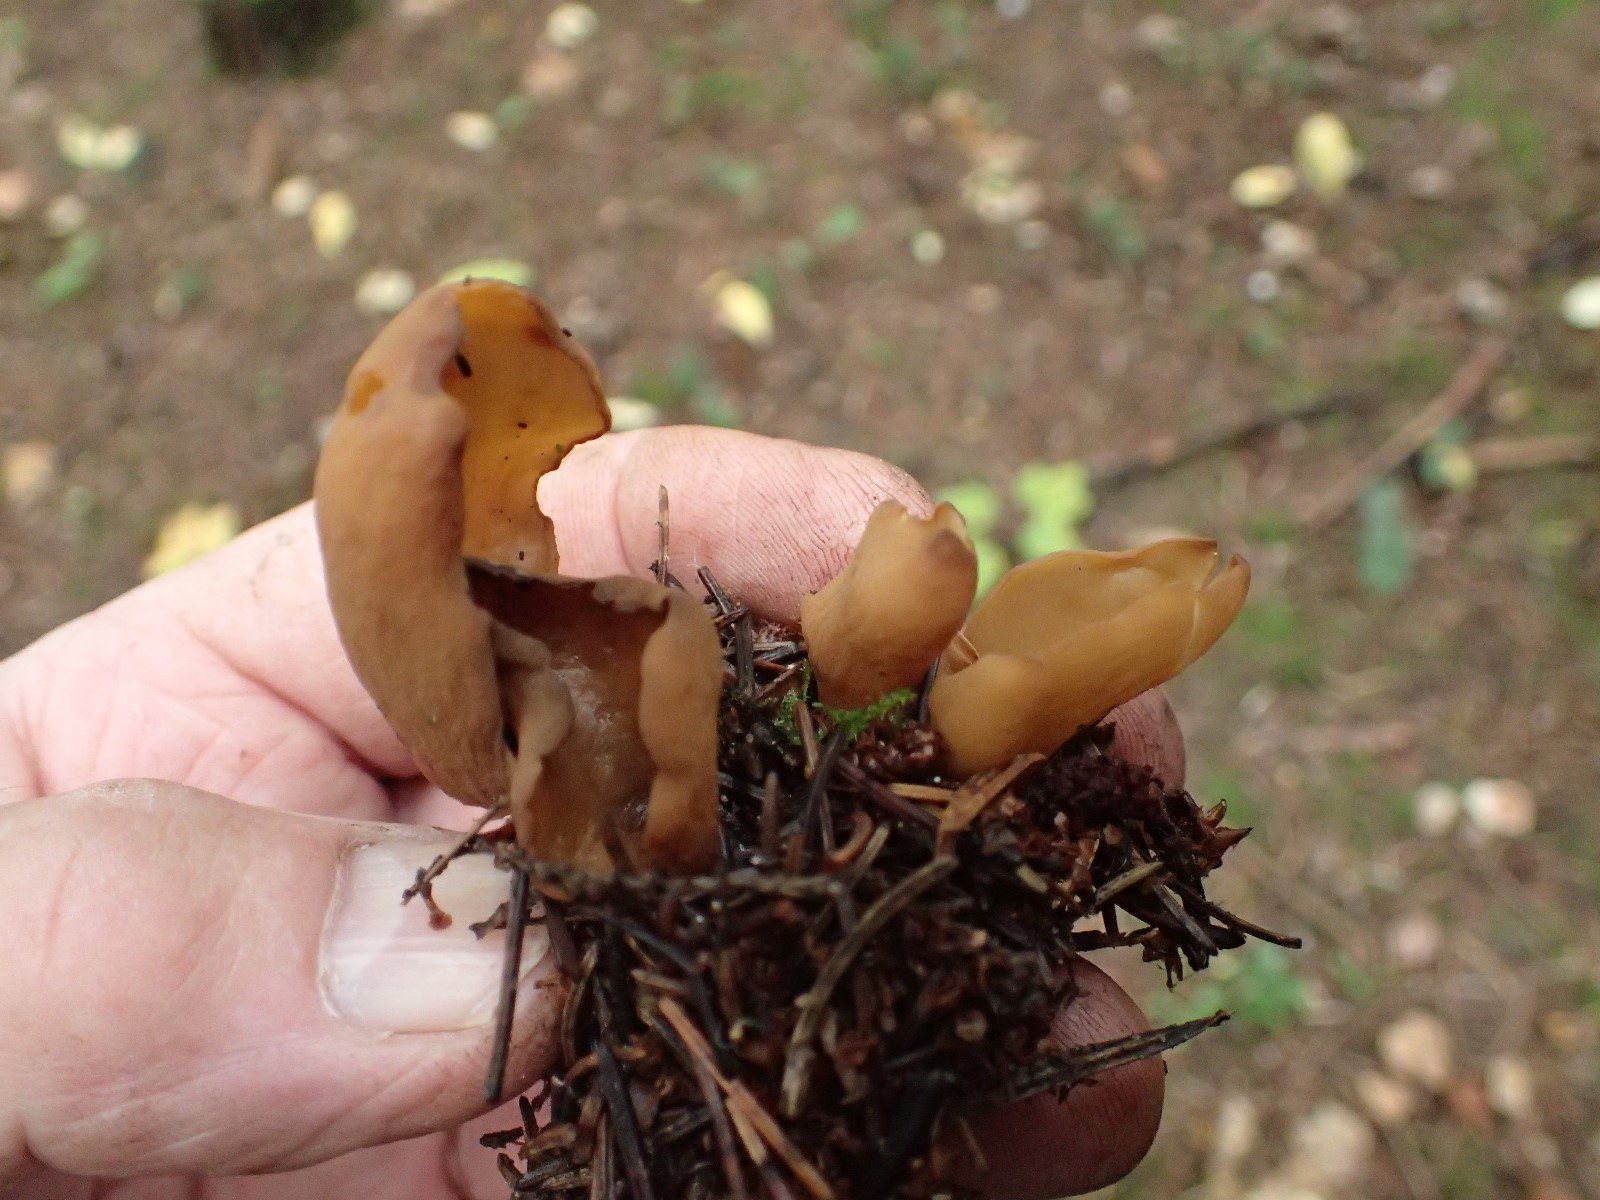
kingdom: Fungi
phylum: Ascomycota
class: Pezizomycetes
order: Pezizales
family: Otideaceae
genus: Otidea
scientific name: Otidea
